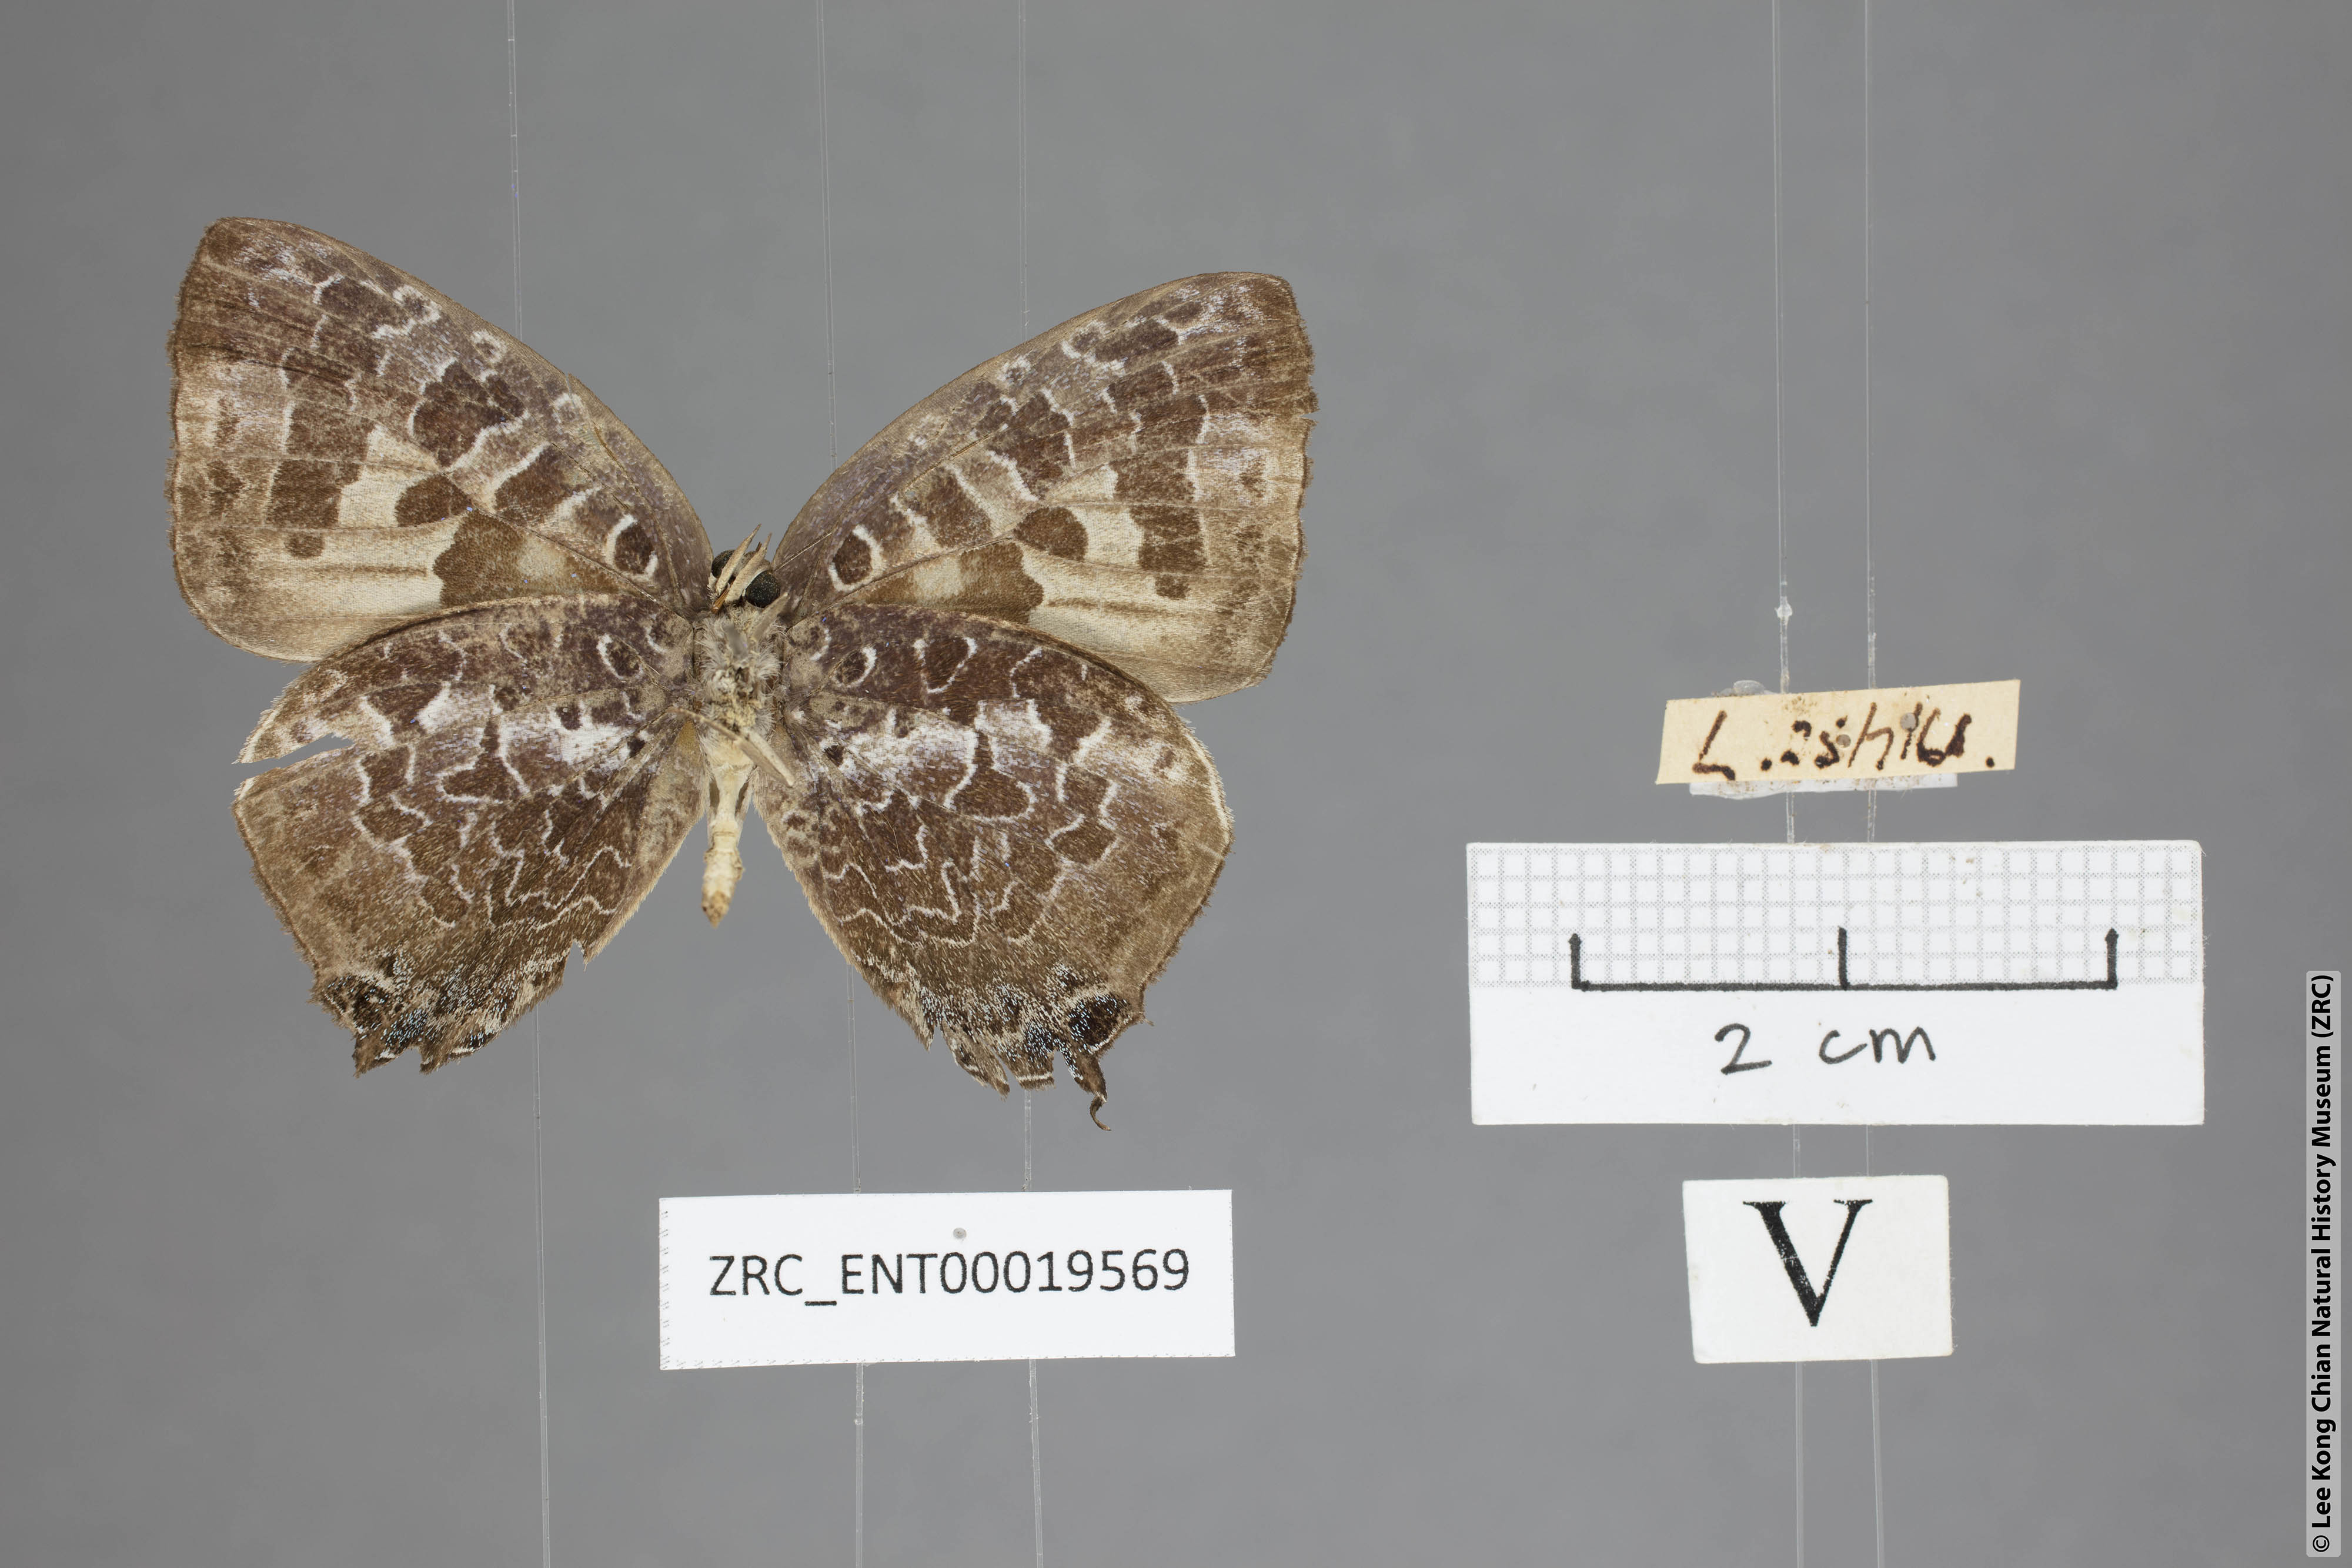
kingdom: Animalia
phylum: Arthropoda
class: Insecta
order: Lepidoptera
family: Lycaenidae
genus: Arhopala
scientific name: Arhopala ijauensis
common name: White-banded oakblue
